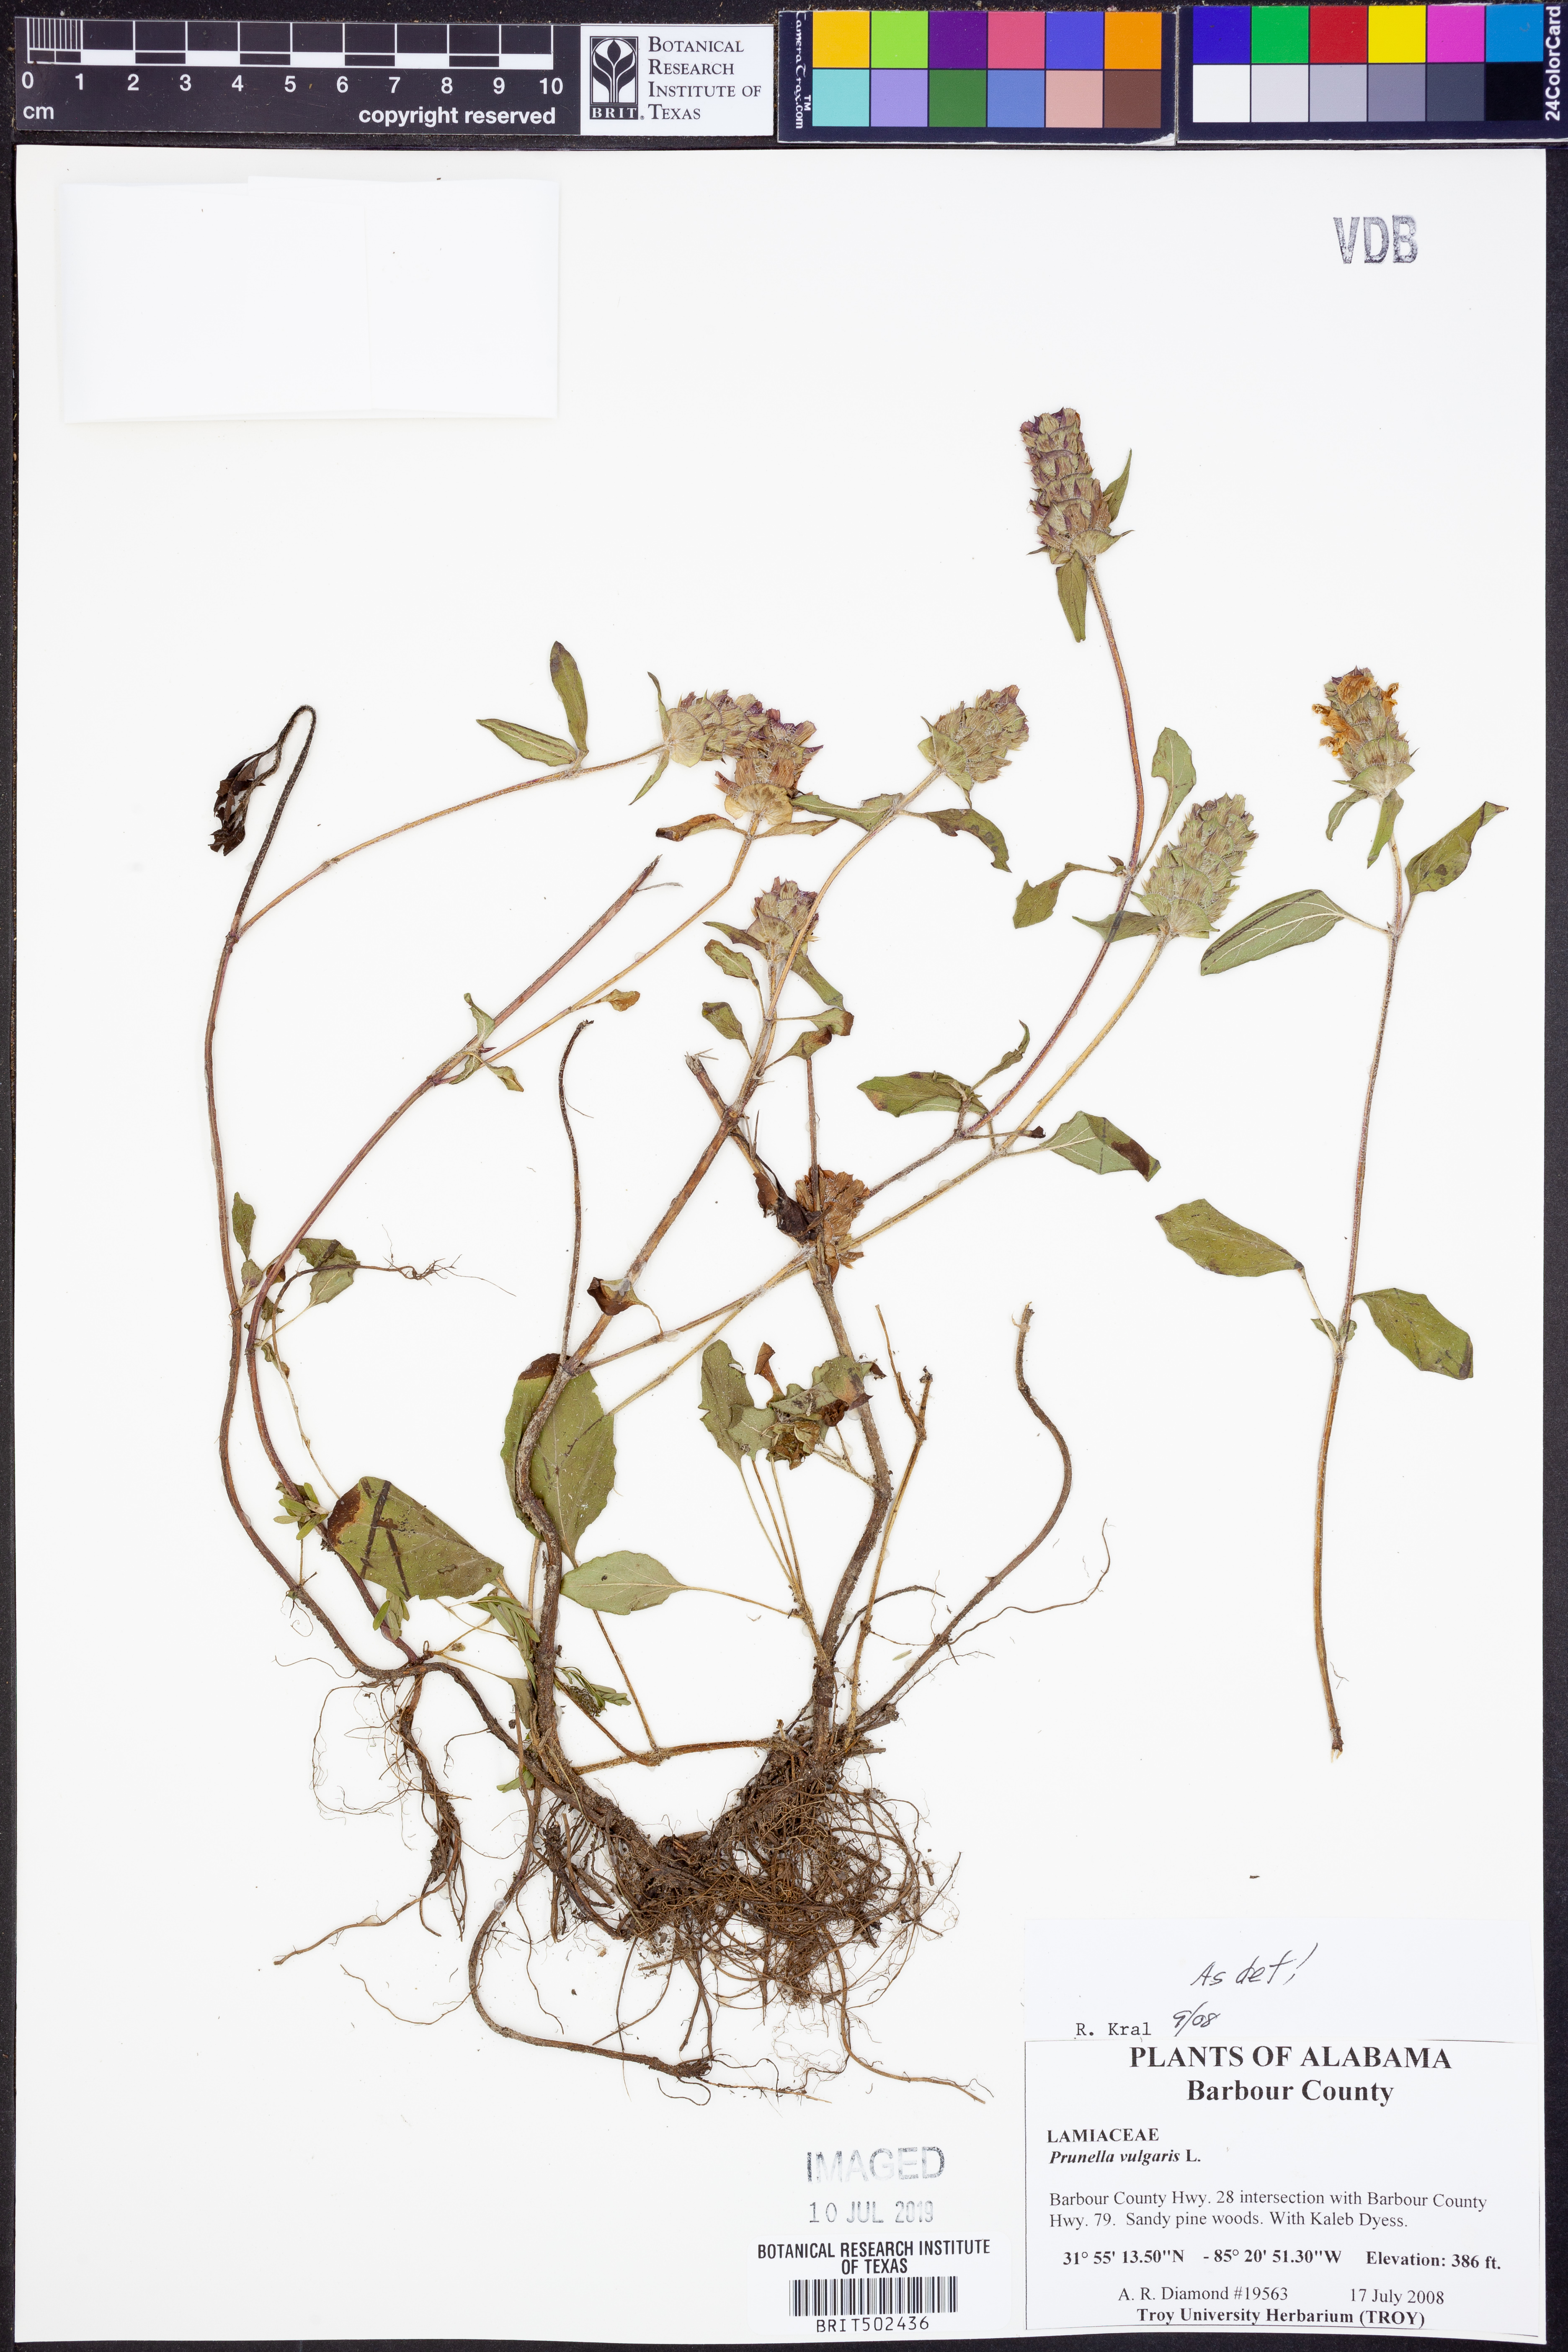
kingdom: Plantae
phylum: Tracheophyta
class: Magnoliopsida
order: Lamiales
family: Lamiaceae
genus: Prunella
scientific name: Prunella vulgaris
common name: Heal-all
